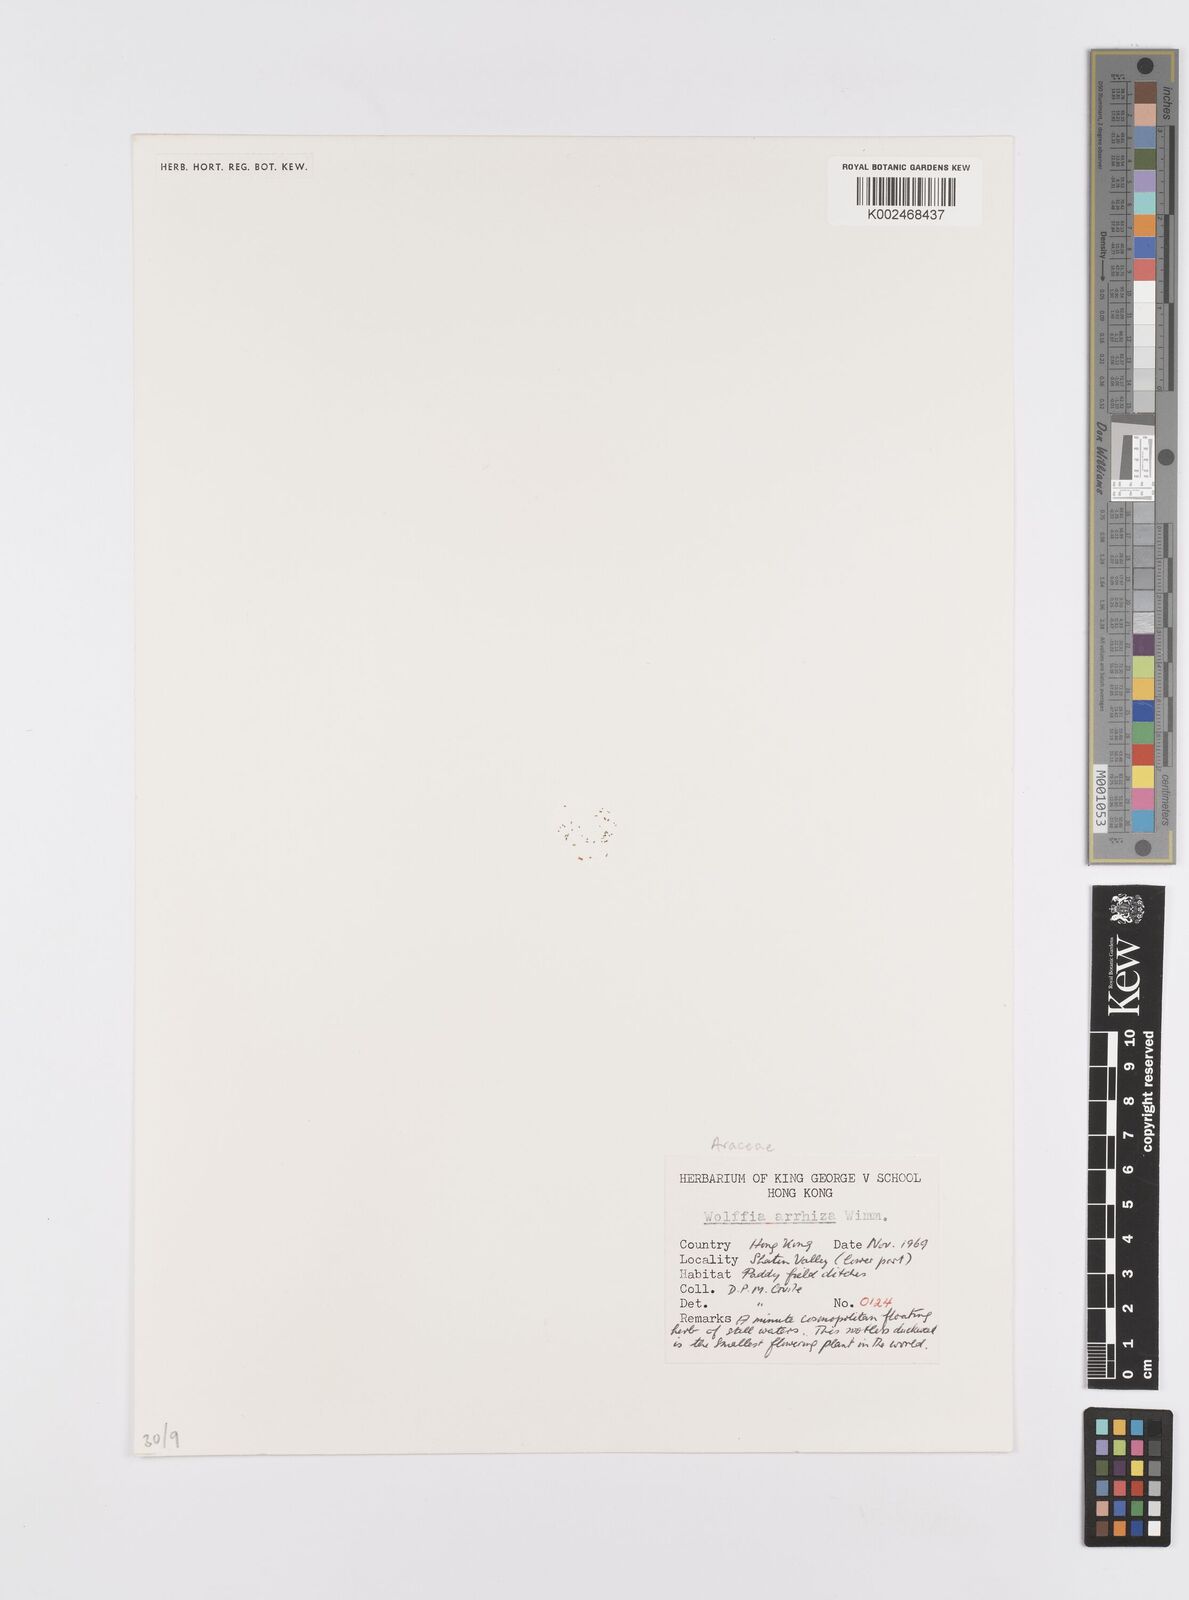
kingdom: Plantae
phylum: Tracheophyta
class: Liliopsida
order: Alismatales
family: Araceae
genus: Wolffia
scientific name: Wolffia arrhiza
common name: Rootless duckweed
